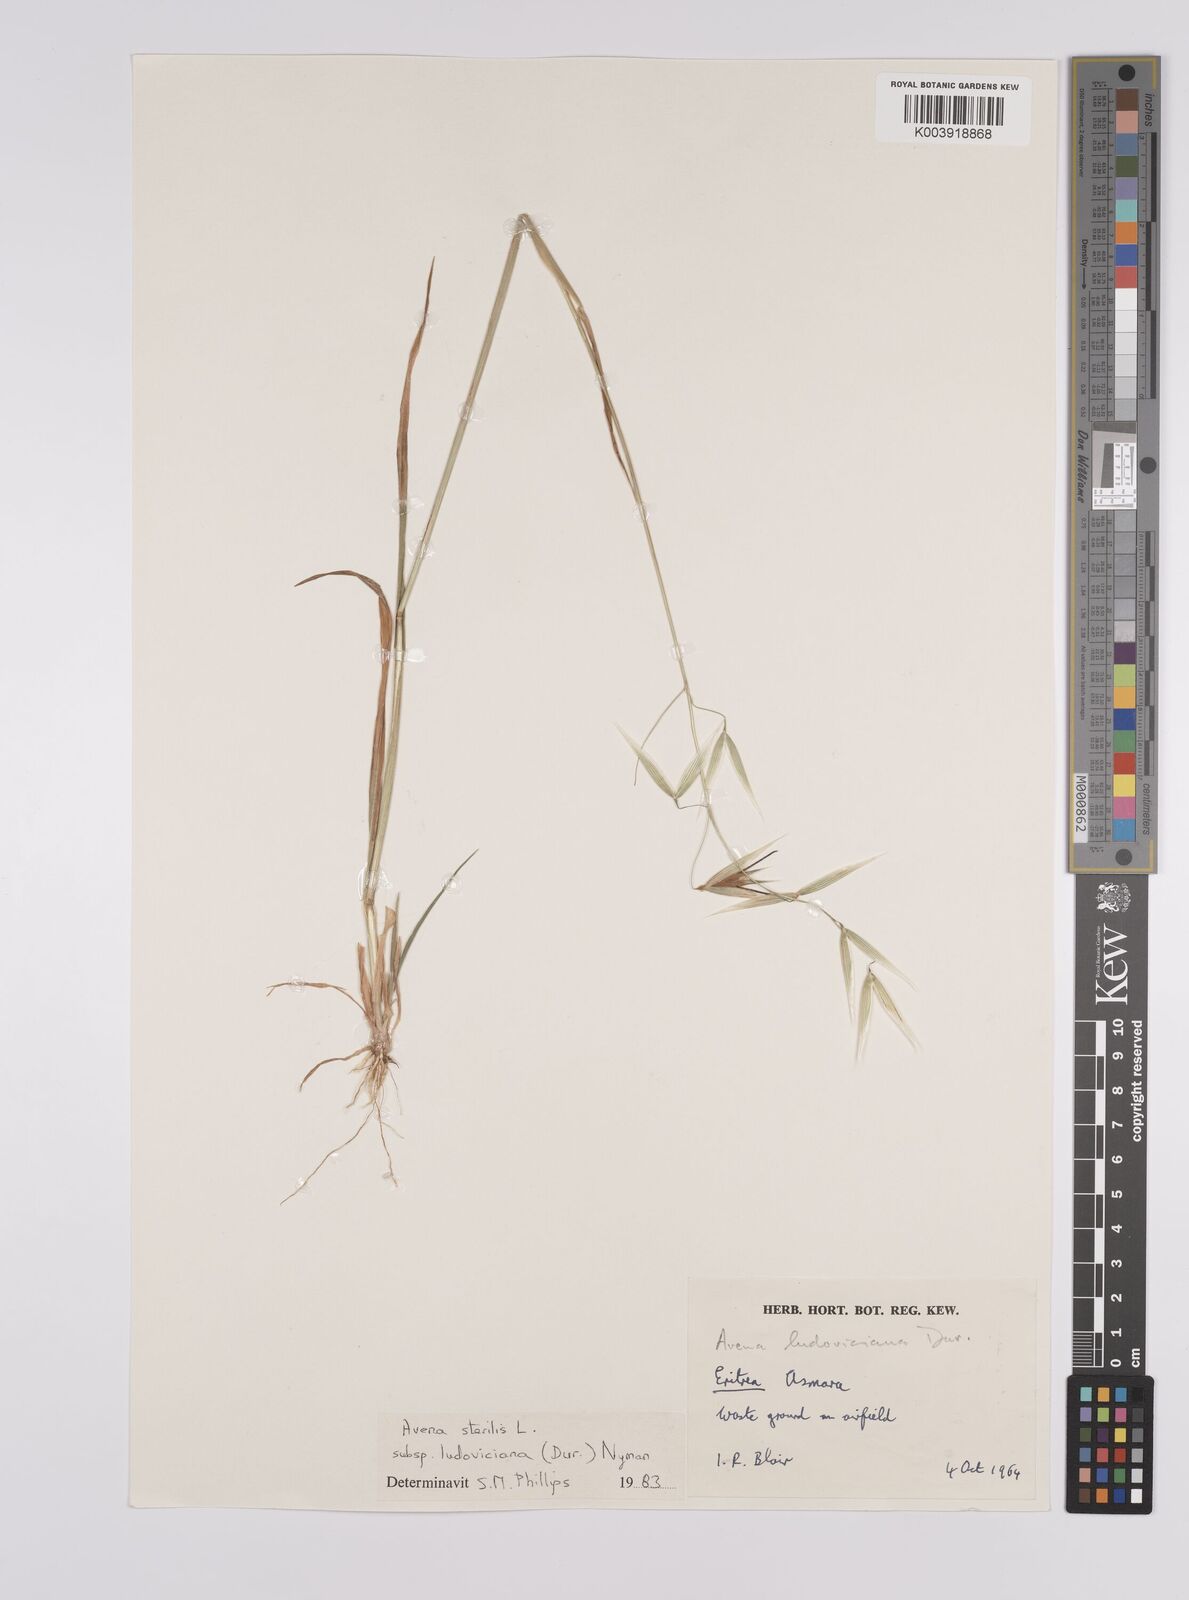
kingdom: Plantae
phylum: Tracheophyta
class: Liliopsida
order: Poales
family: Poaceae
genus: Avena
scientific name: Avena sterilis
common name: Animated oat
